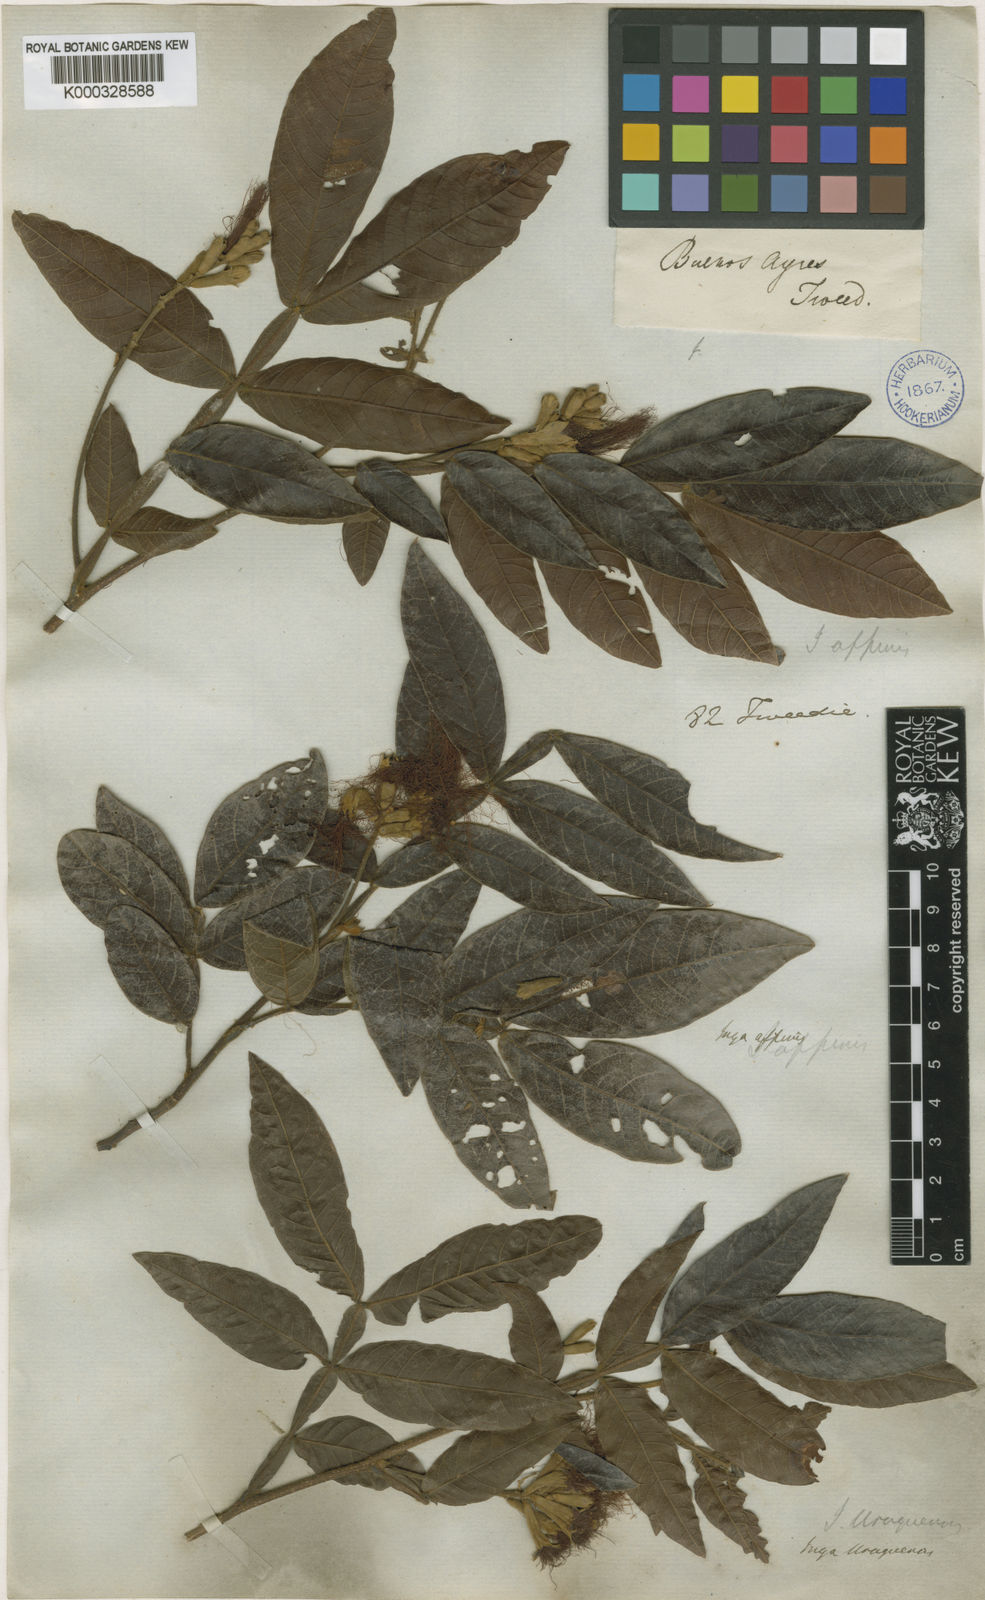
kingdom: Plantae
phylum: Tracheophyta
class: Magnoliopsida
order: Fabales
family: Fabaceae
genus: Inga
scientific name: Inga affinis
